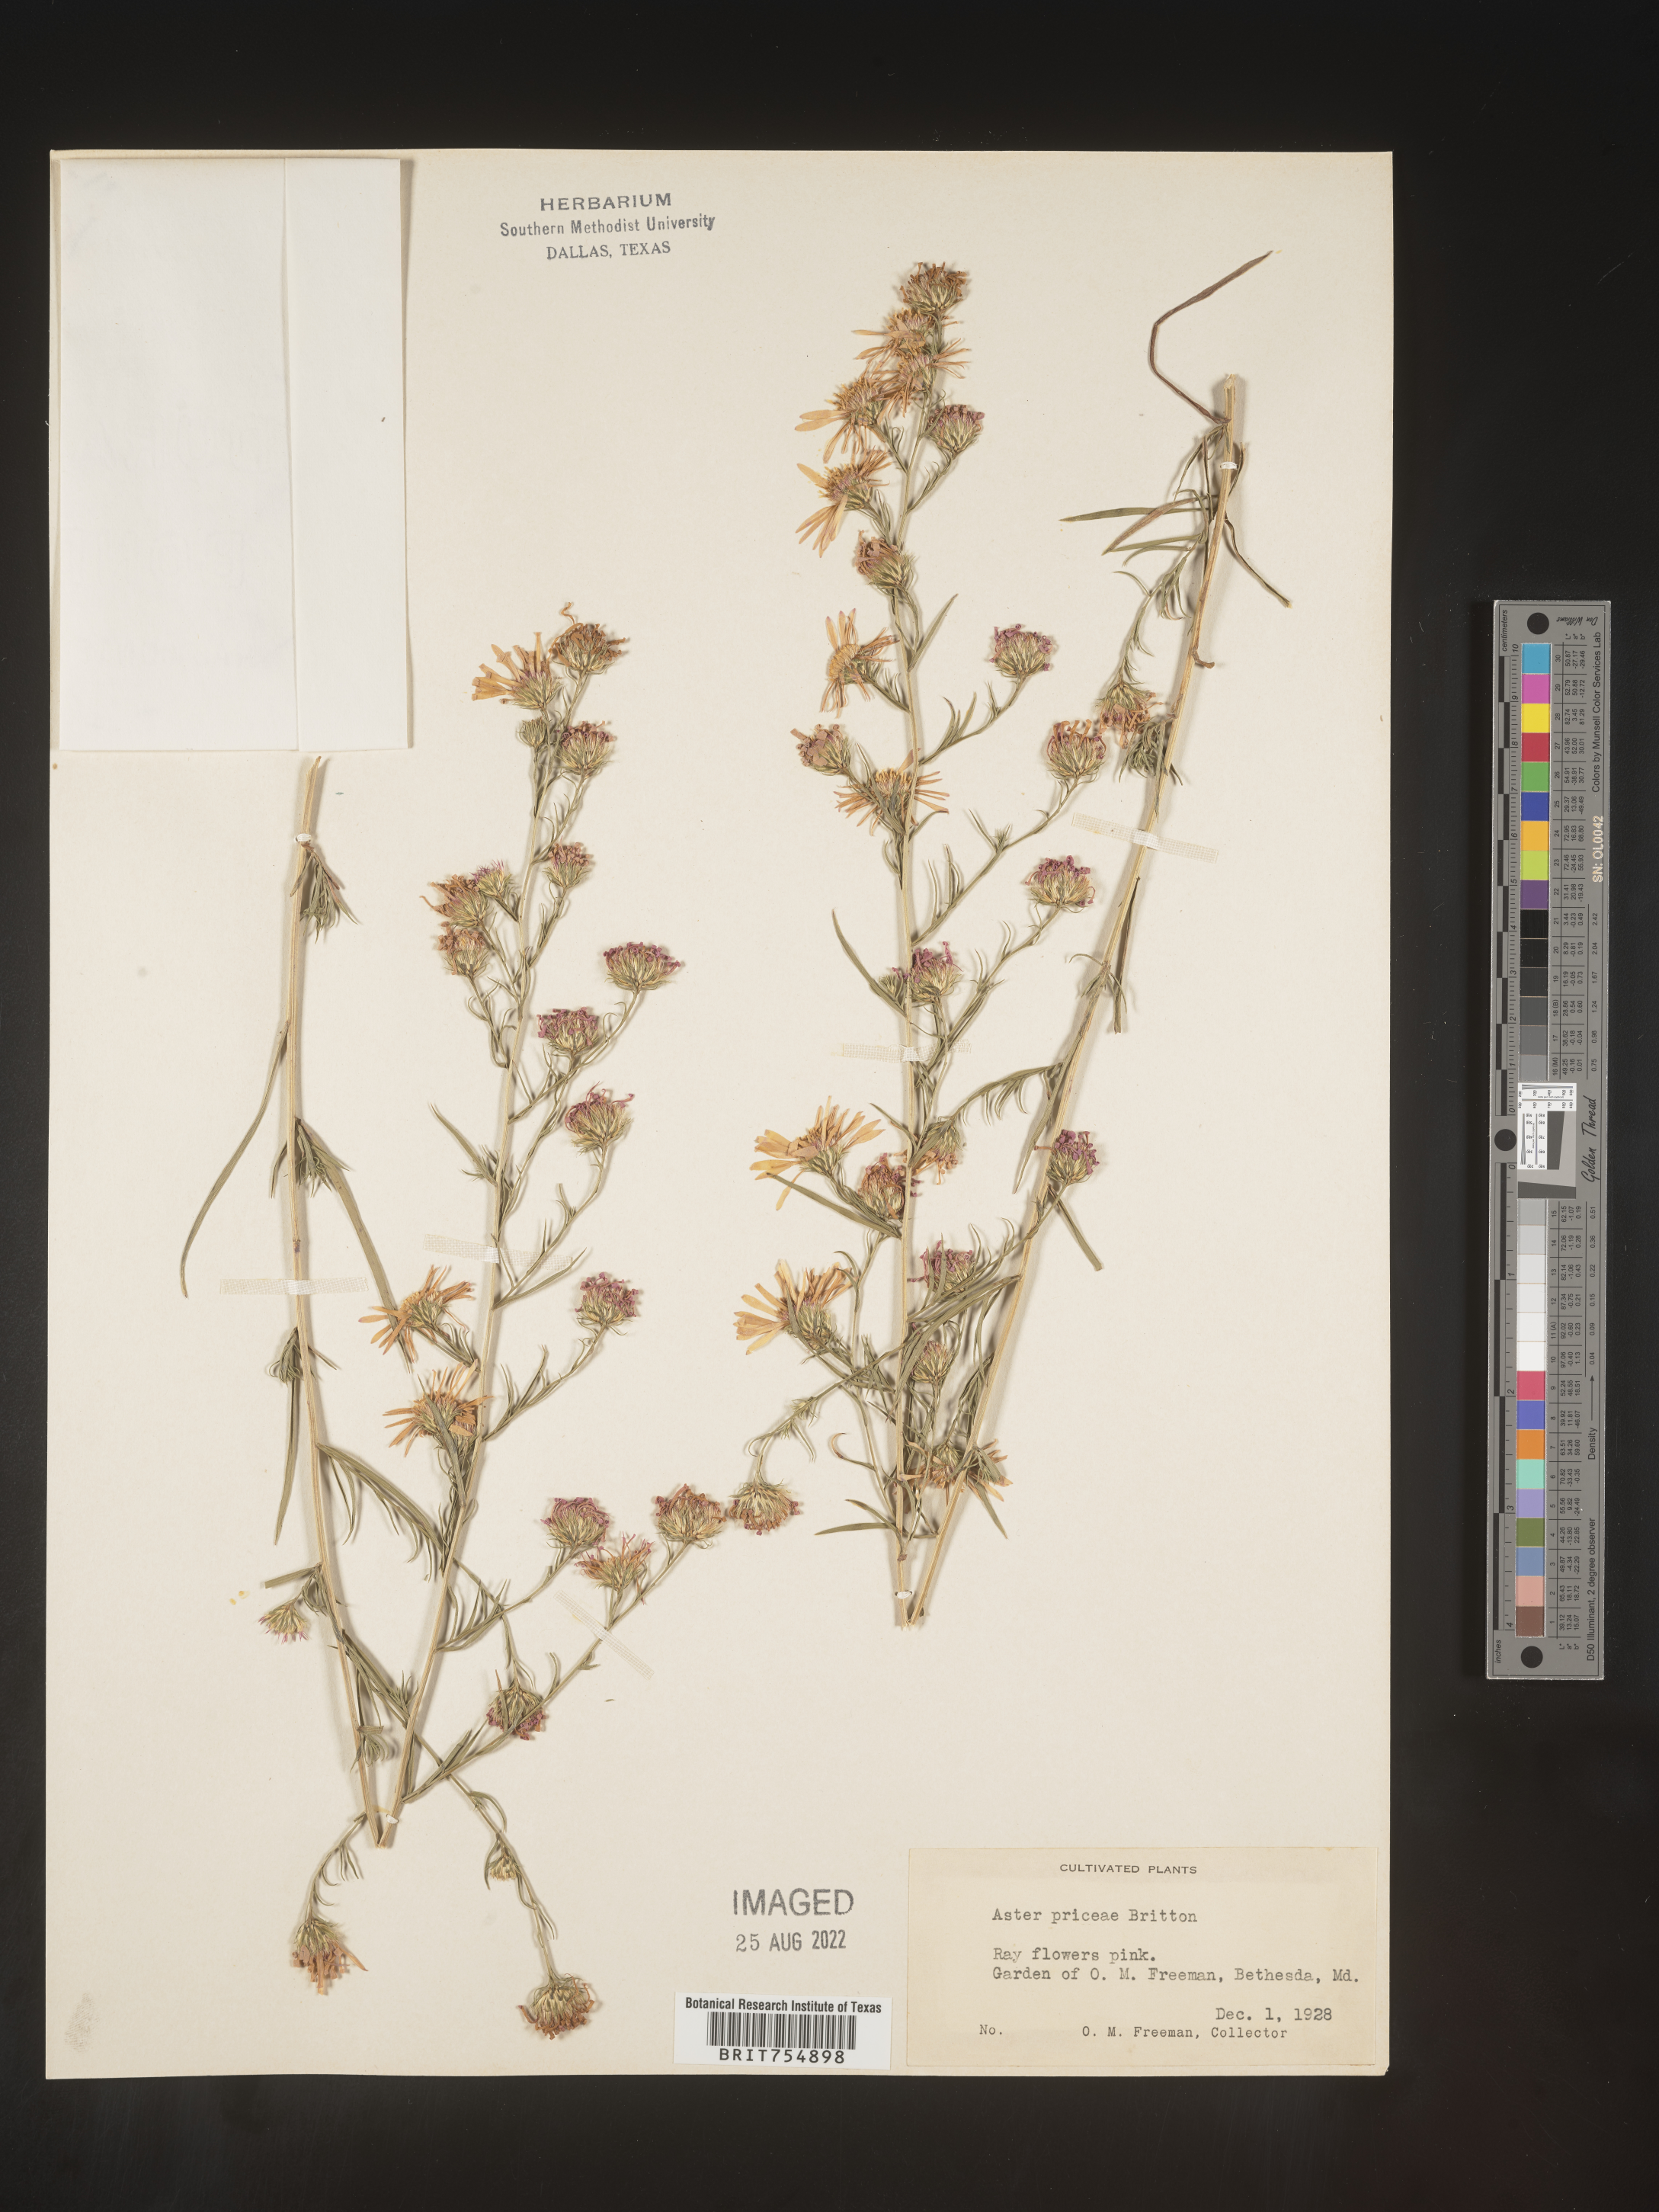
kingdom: Plantae
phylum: Tracheophyta
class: Magnoliopsida
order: Asterales
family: Asteraceae
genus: Symphyotrichum
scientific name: Symphyotrichum
